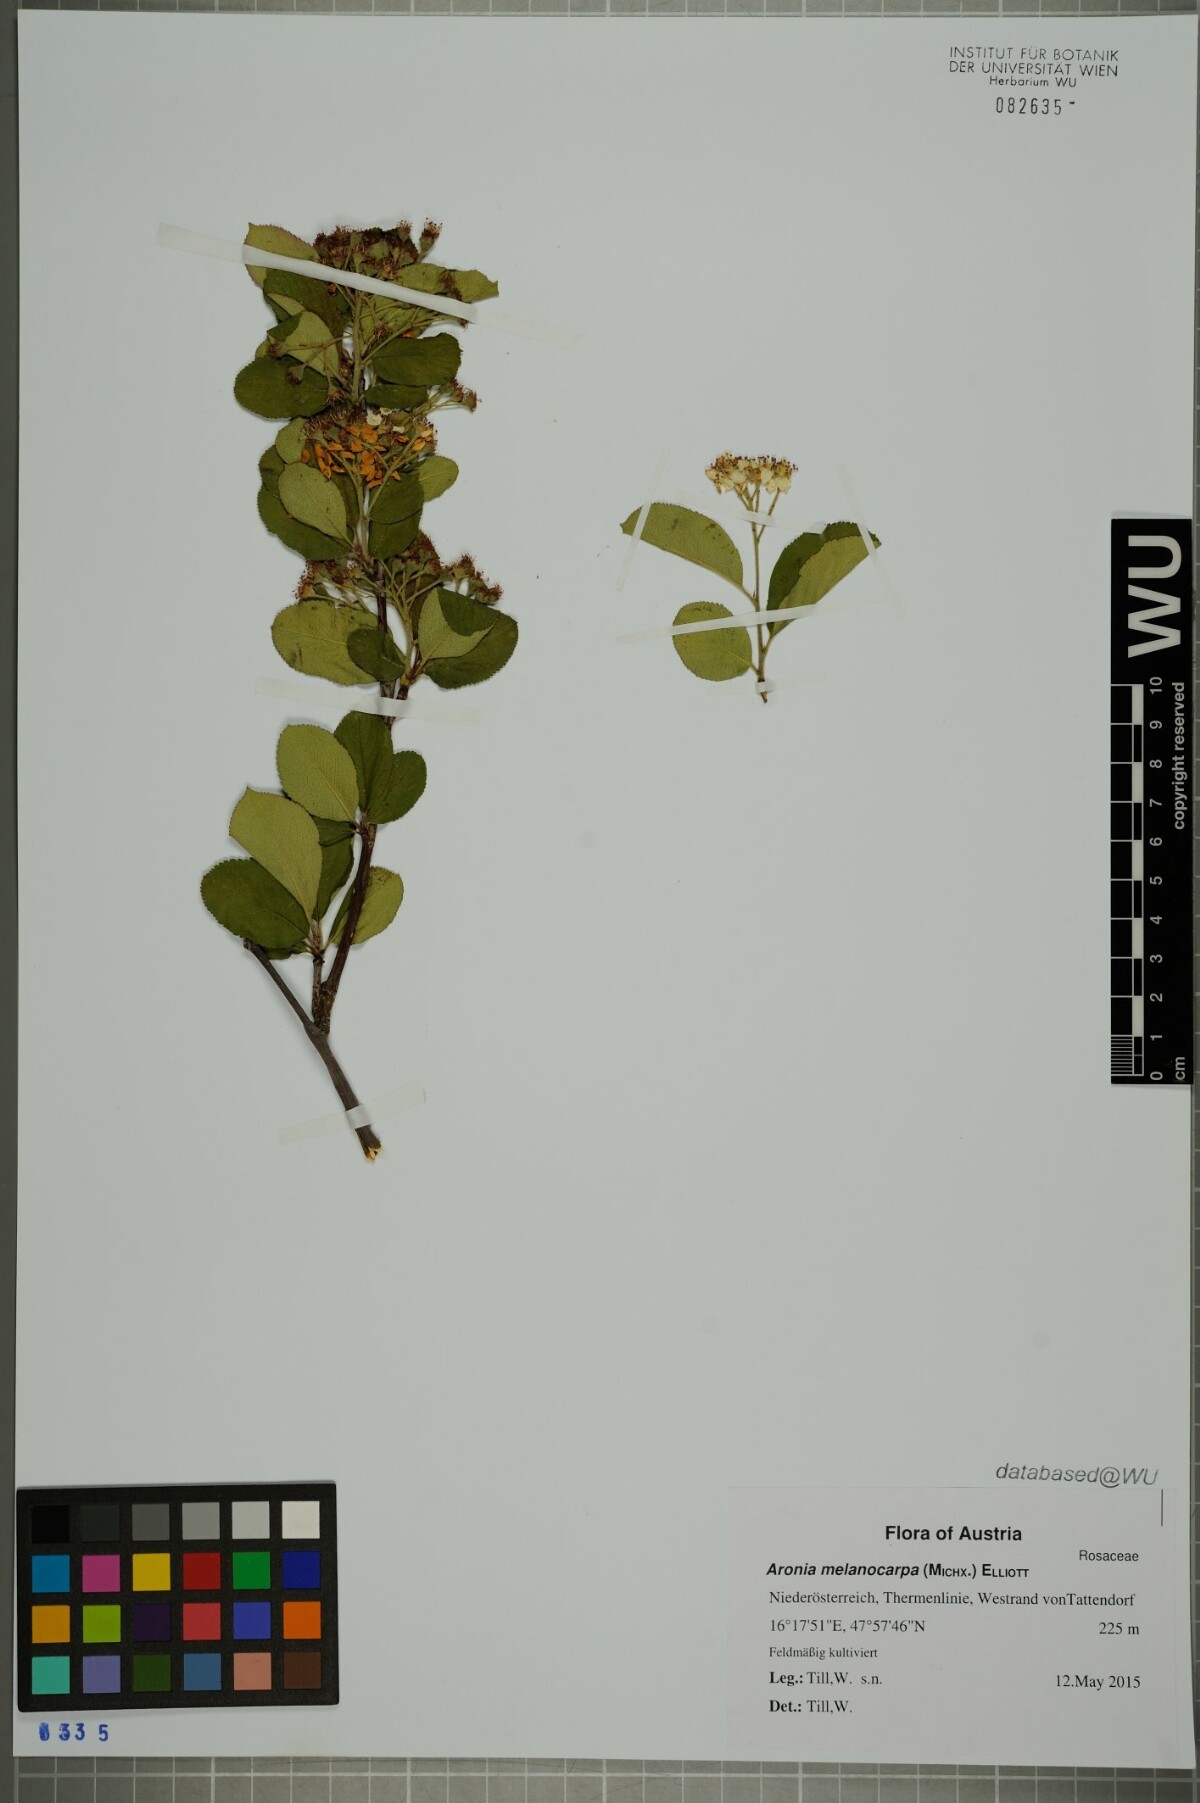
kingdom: Plantae
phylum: Tracheophyta
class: Magnoliopsida
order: Rosales
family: Rosaceae
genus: Aronia
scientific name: Aronia melanocarpa
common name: Black chokeberry
